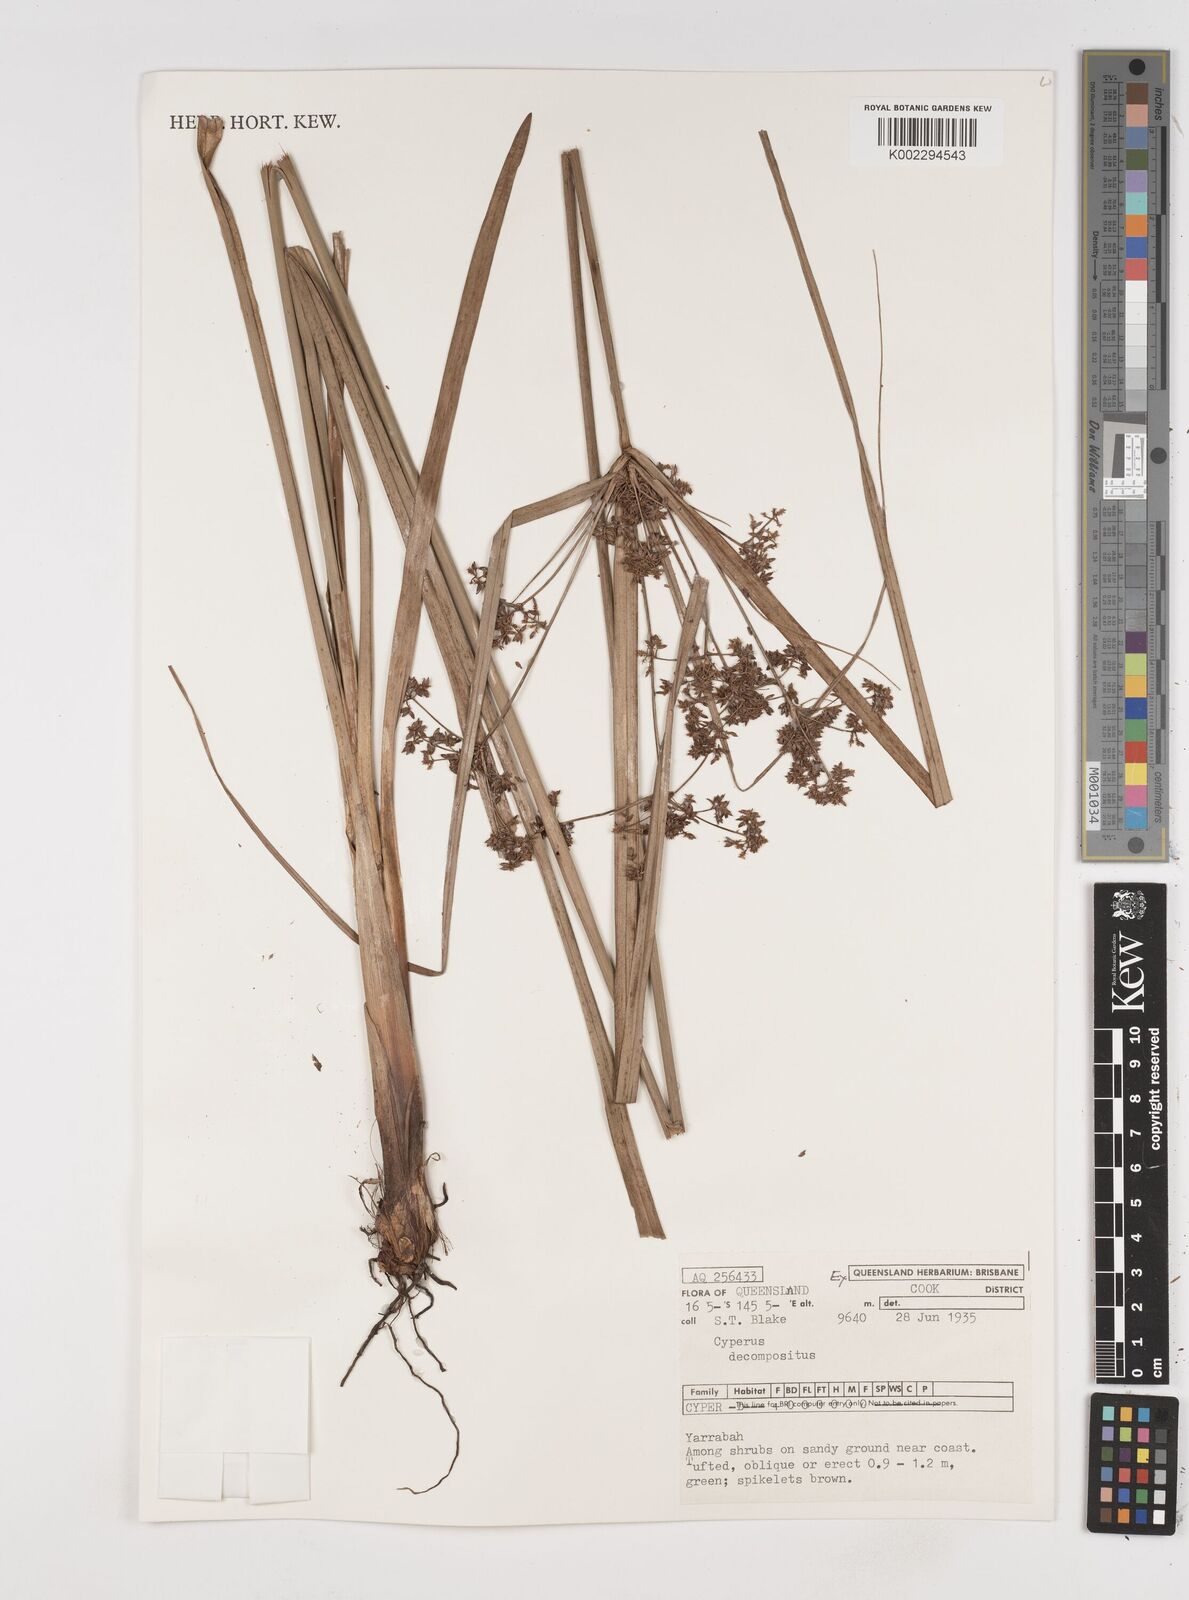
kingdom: Plantae
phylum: Tracheophyta
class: Liliopsida
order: Poales
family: Cyperaceae
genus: Cyperus
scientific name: Cyperus decompositus
